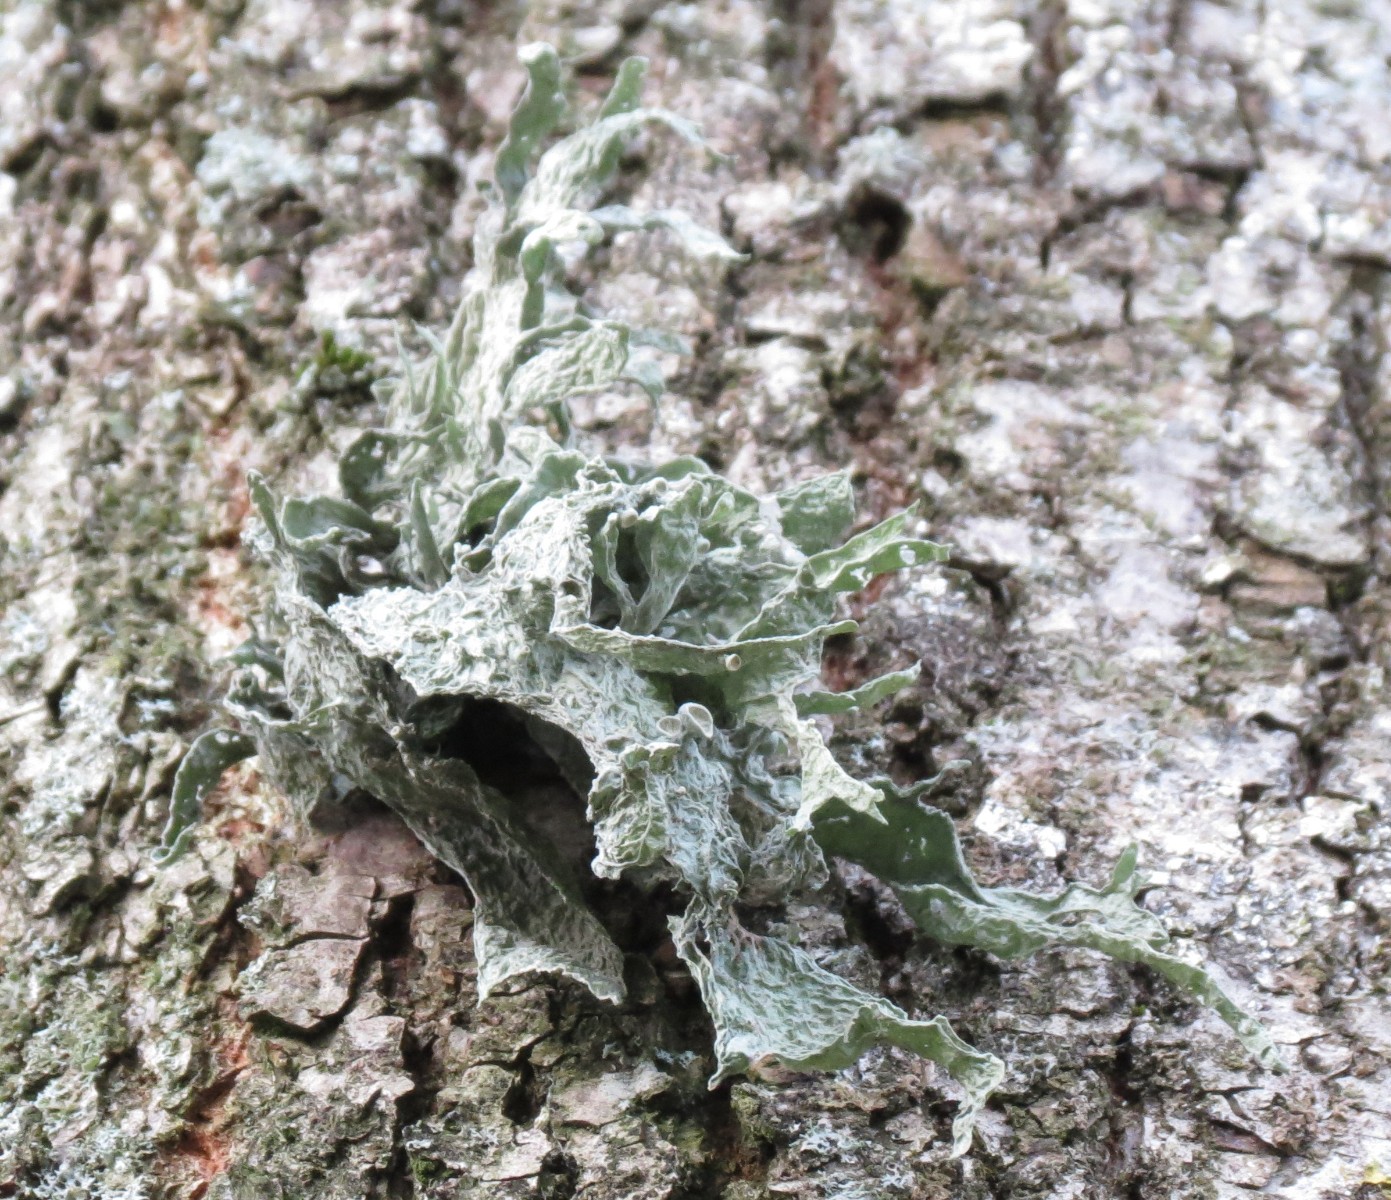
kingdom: Fungi
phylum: Ascomycota
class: Lecanoromycetes
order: Lecanorales
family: Ramalinaceae
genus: Ramalina
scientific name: Ramalina fraxinea
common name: stor grenlav
